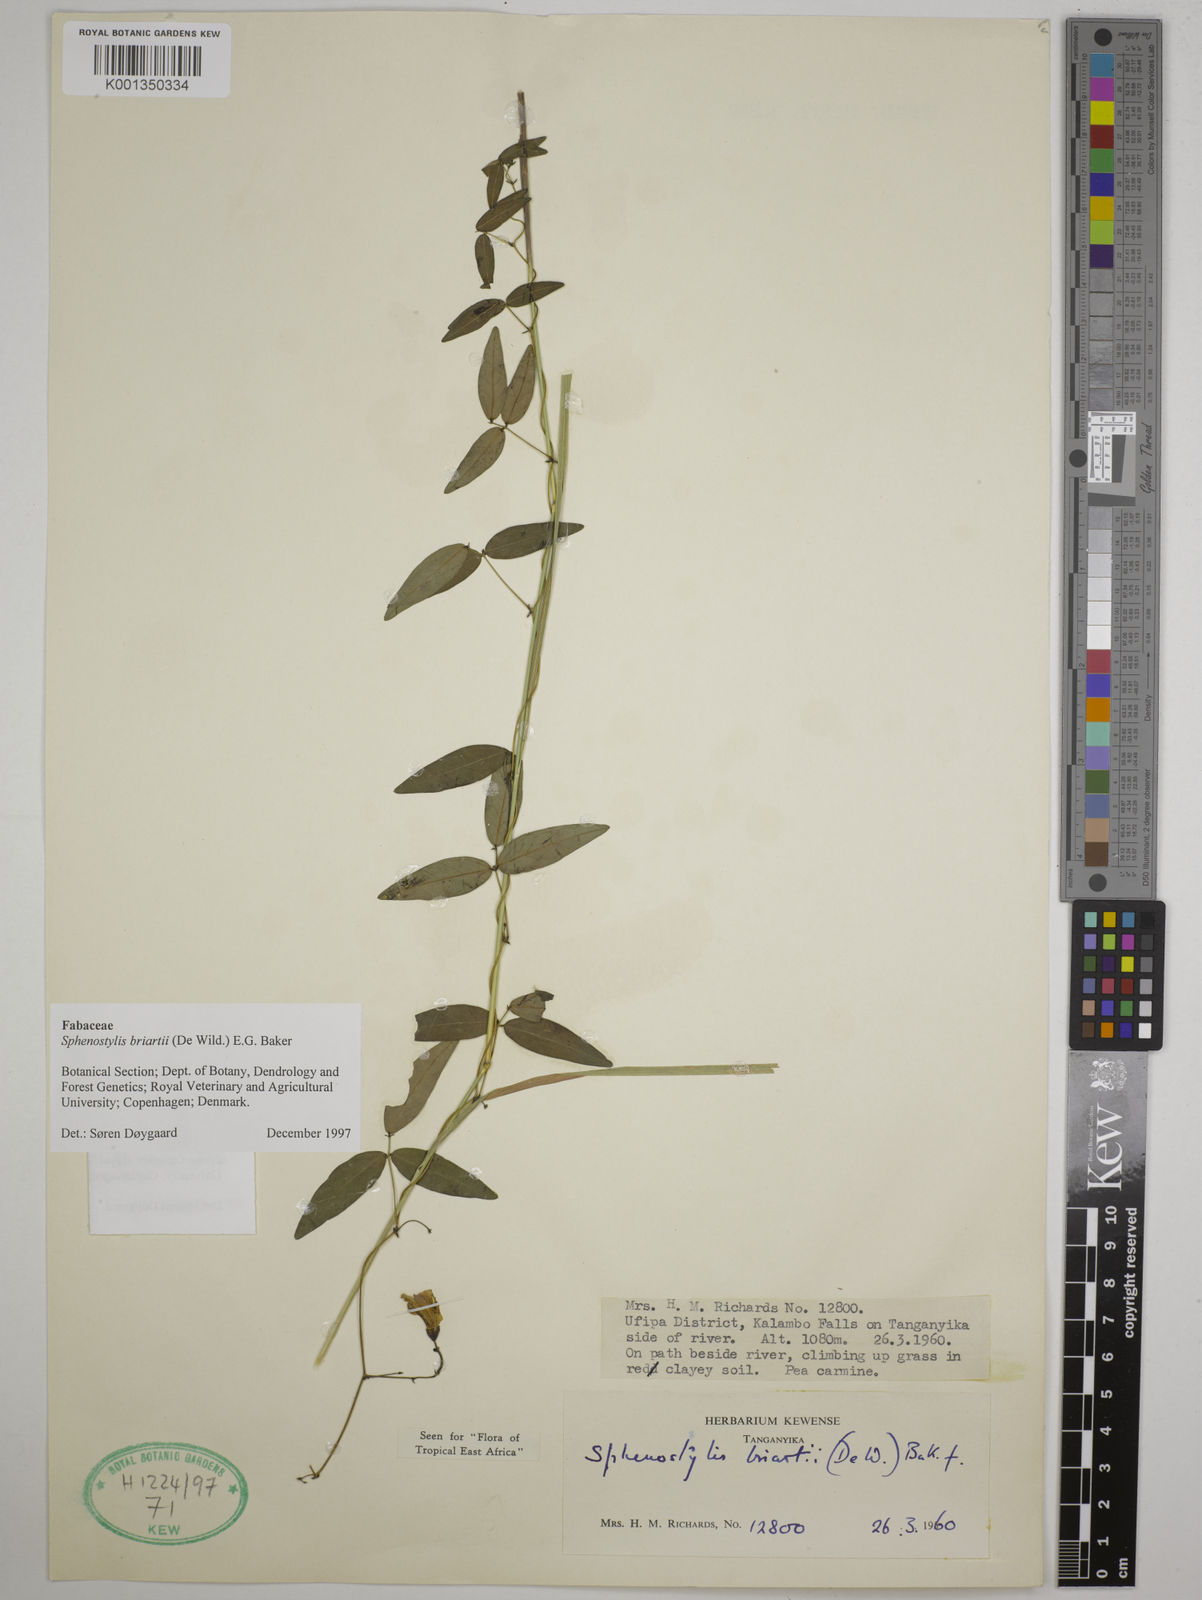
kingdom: Plantae
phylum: Tracheophyta
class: Magnoliopsida
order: Fabales
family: Fabaceae
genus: Sphenostylis
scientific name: Sphenostylis briartii
